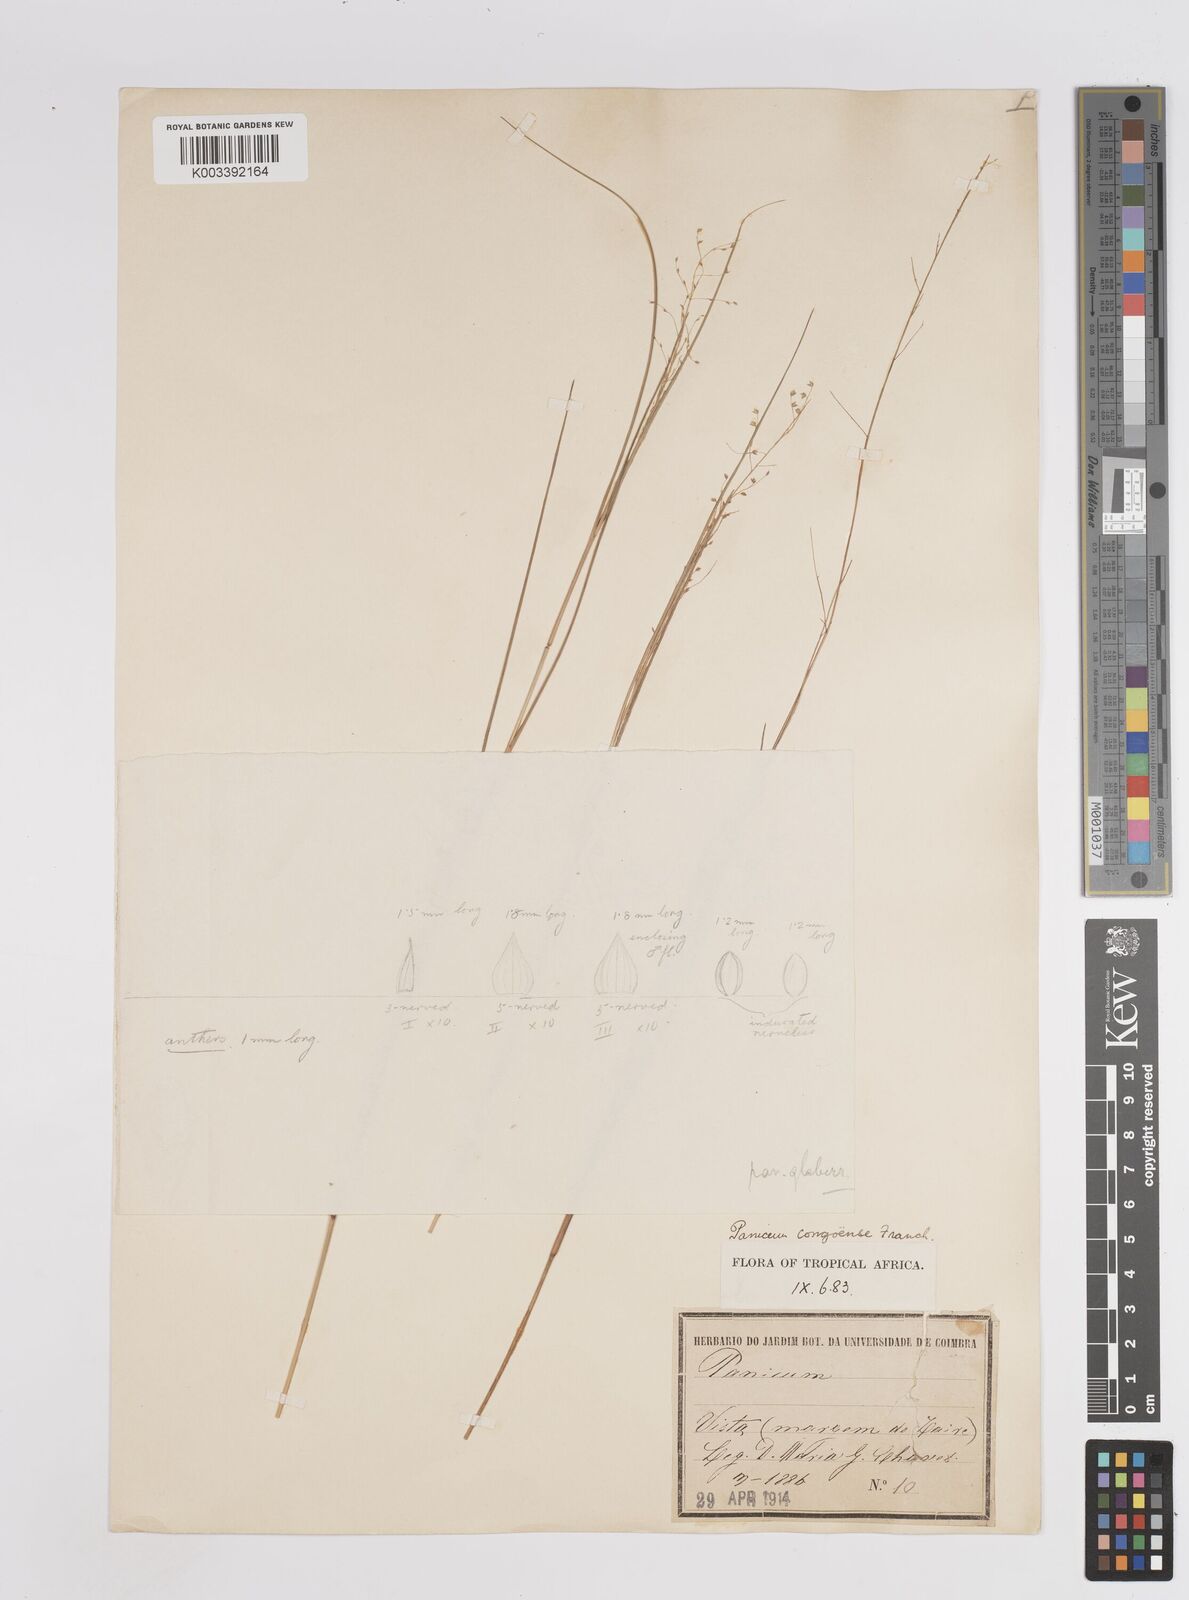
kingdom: Plantae
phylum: Tracheophyta
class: Liliopsida
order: Poales
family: Poaceae
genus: Panicum
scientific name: Panicum congoense
